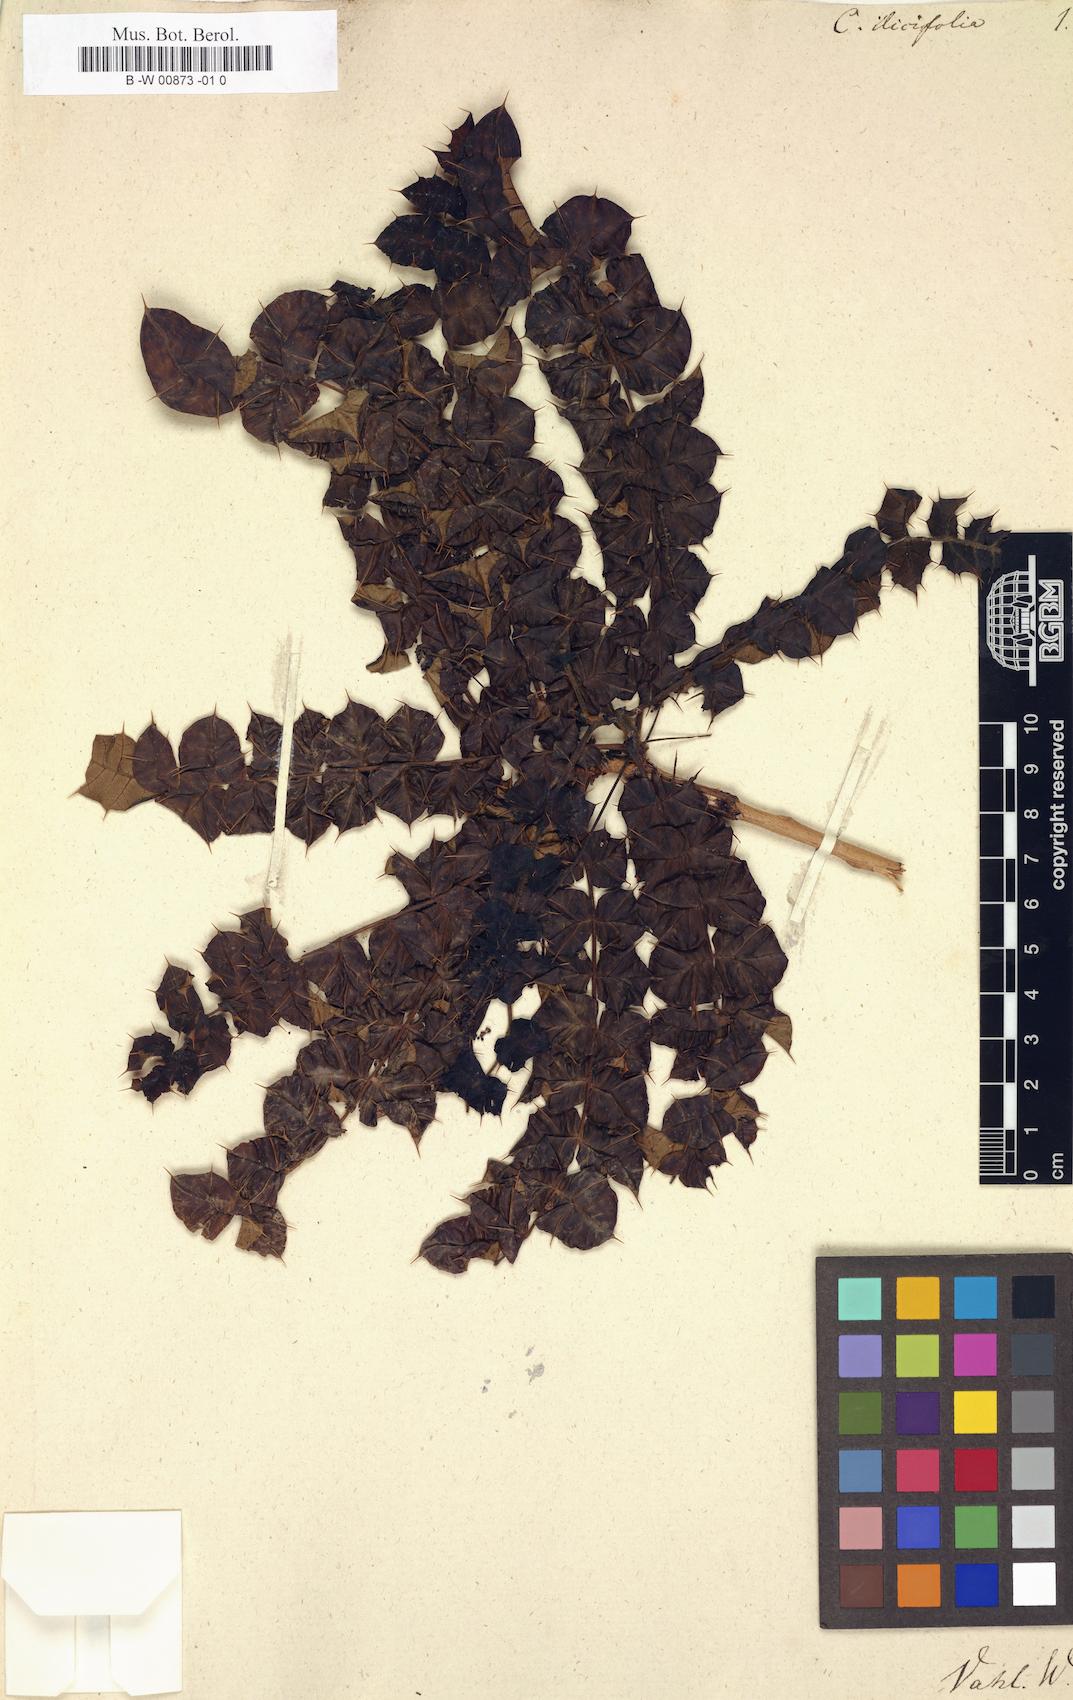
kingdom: Plantae
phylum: Tracheophyta
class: Magnoliopsida
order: Sapindales
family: Anacardiaceae
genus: Comocladia
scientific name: Comocladia dodonaea
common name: Poison ash
